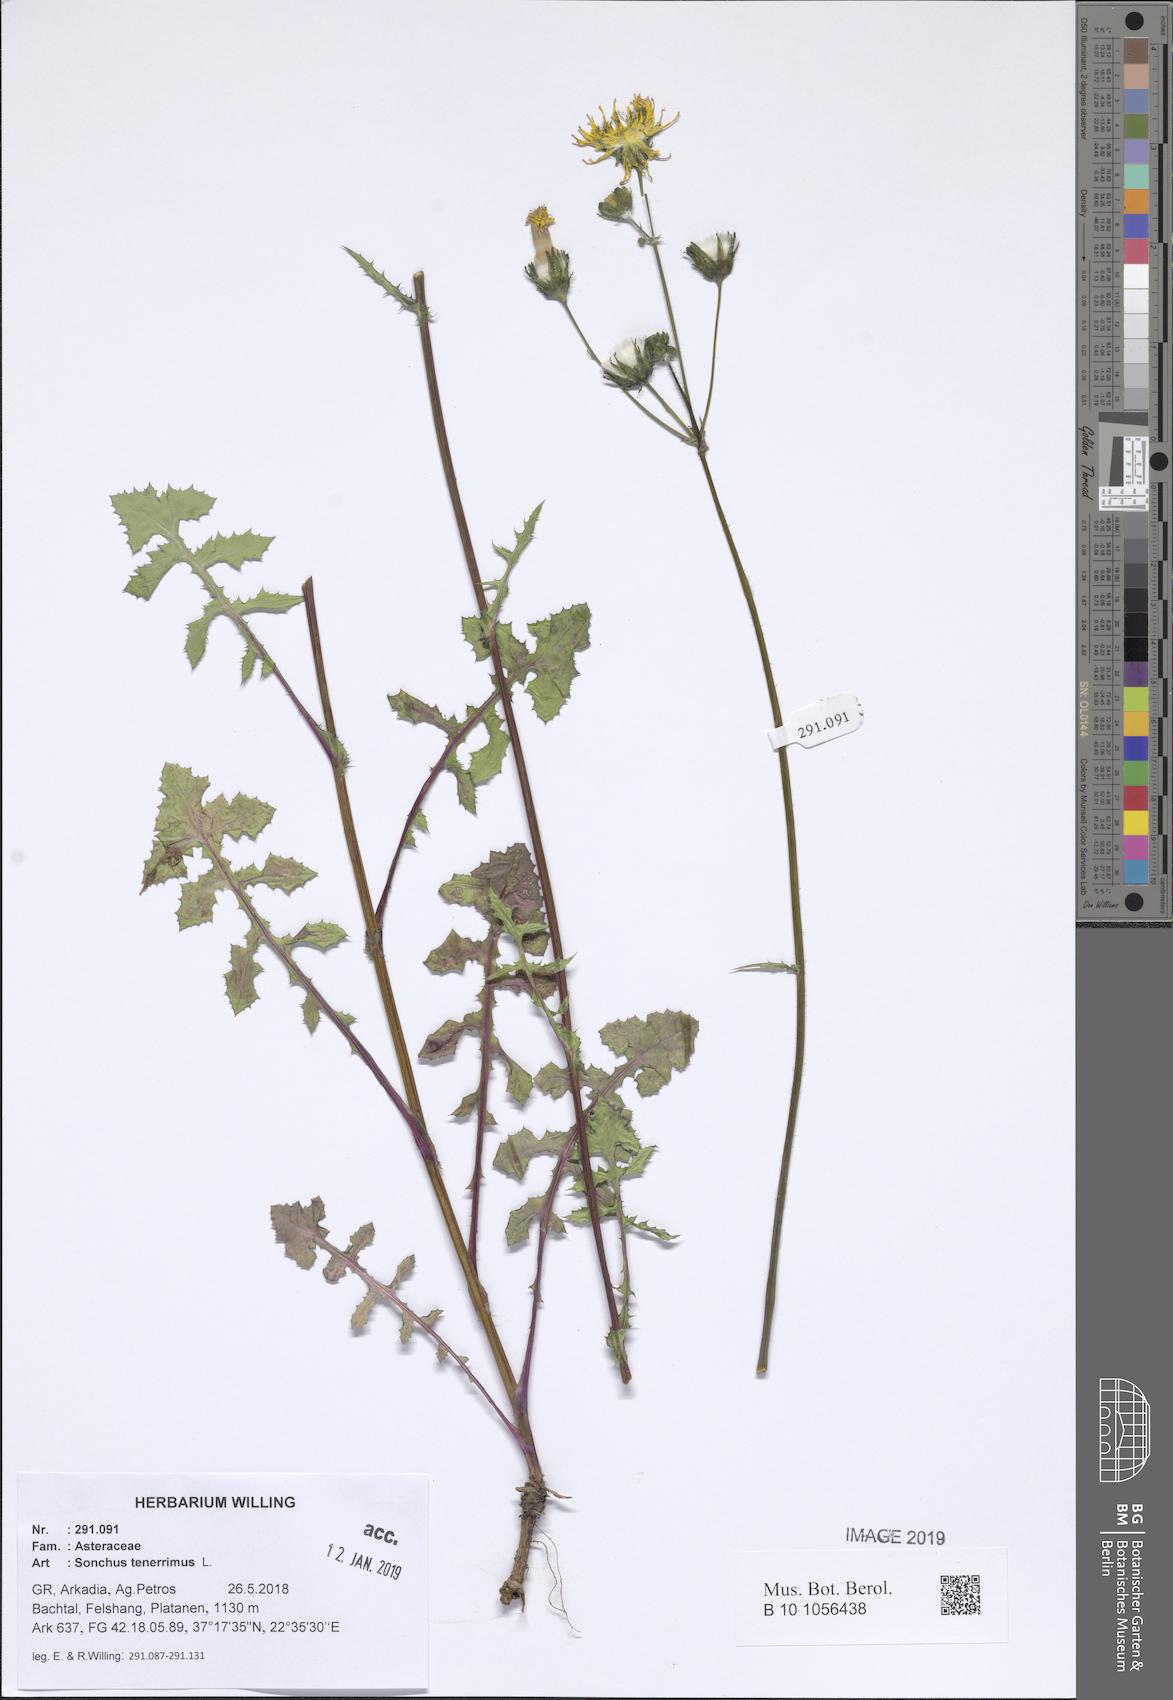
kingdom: Plantae
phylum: Tracheophyta
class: Magnoliopsida
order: Asterales
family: Asteraceae
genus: Sonchus
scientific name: Sonchus tenerrimus
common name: Clammy sowthistle
